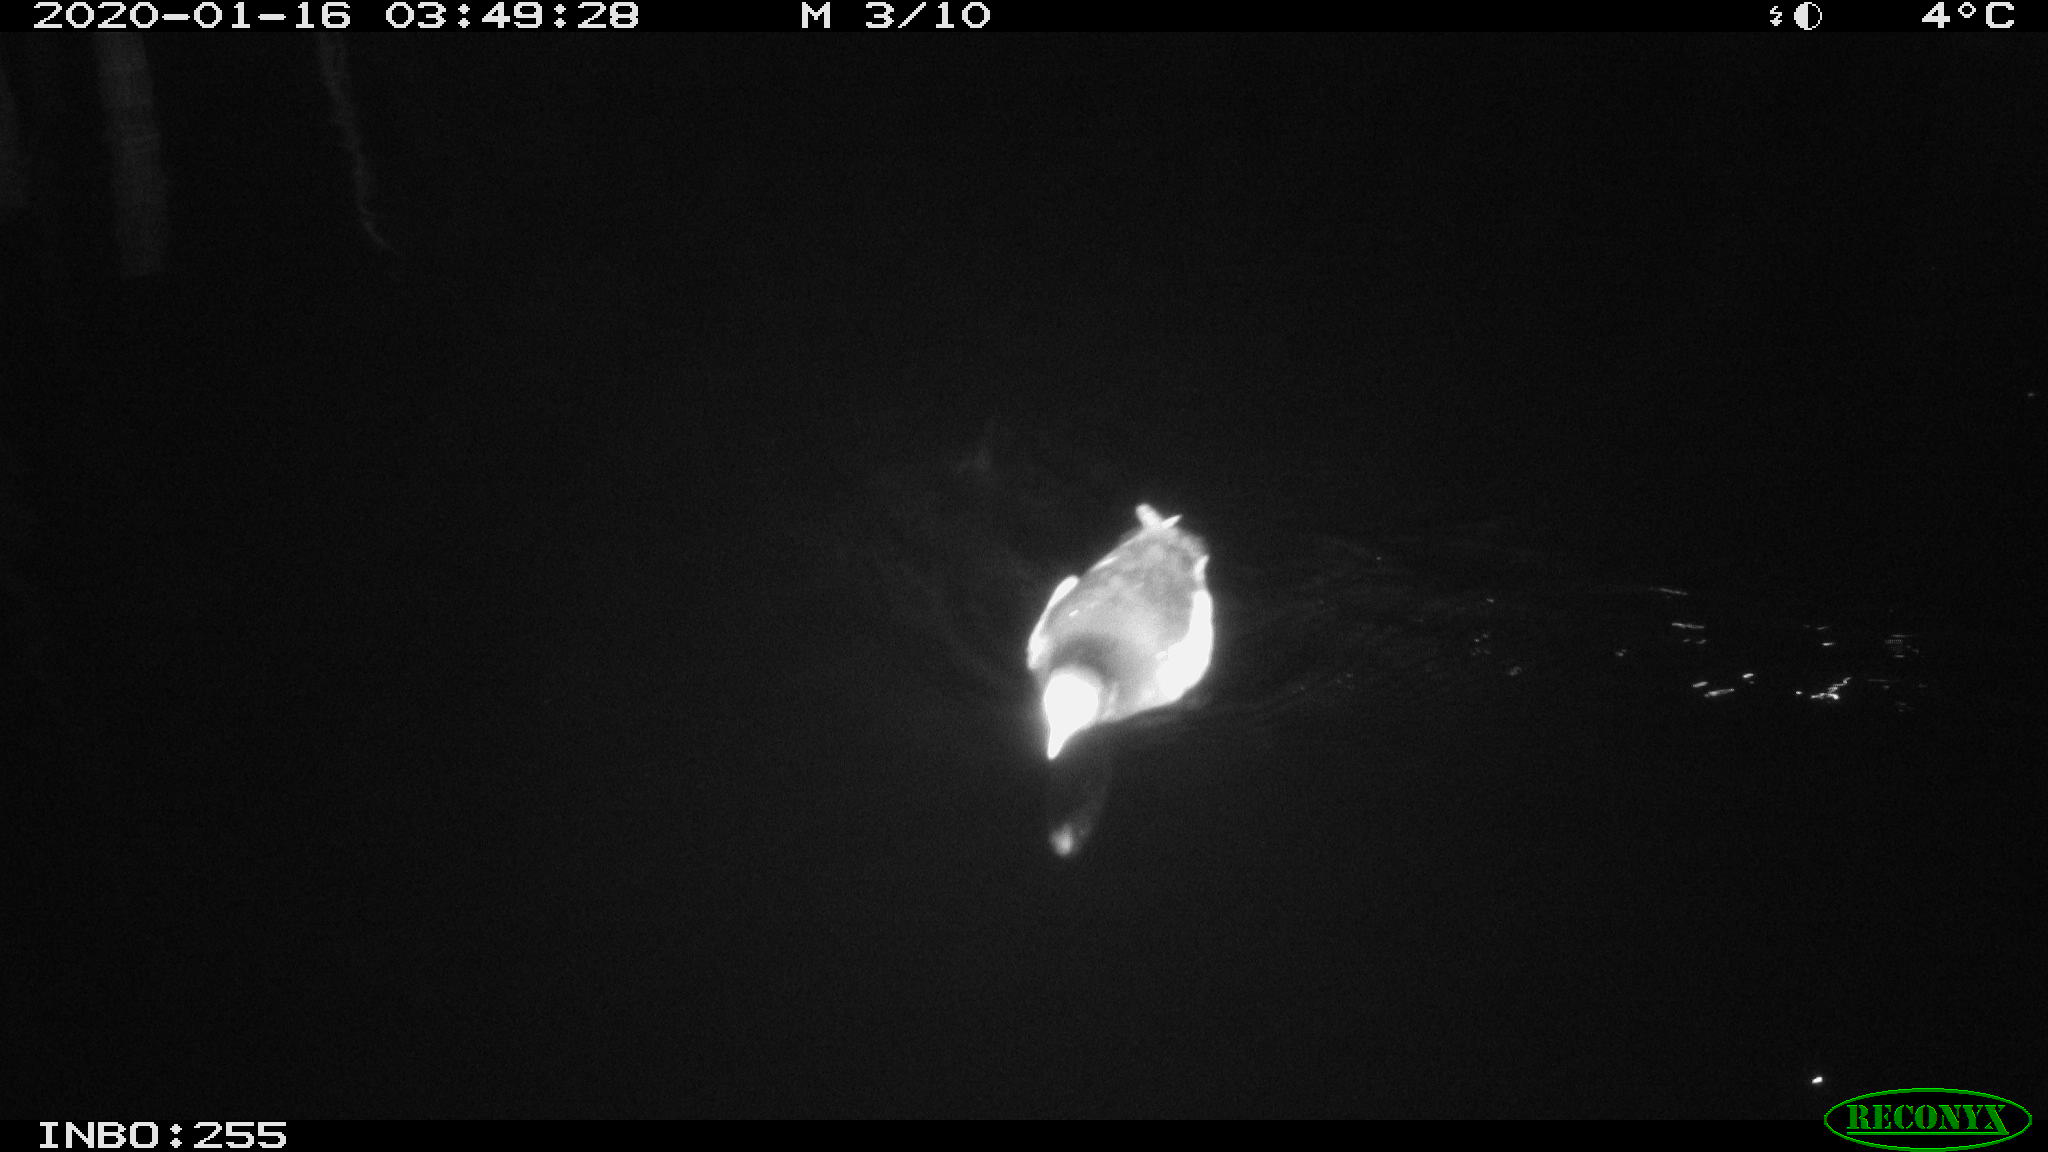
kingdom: Animalia
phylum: Chordata
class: Aves
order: Gruiformes
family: Rallidae
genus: Gallinula
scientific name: Gallinula chloropus
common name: Common moorhen
